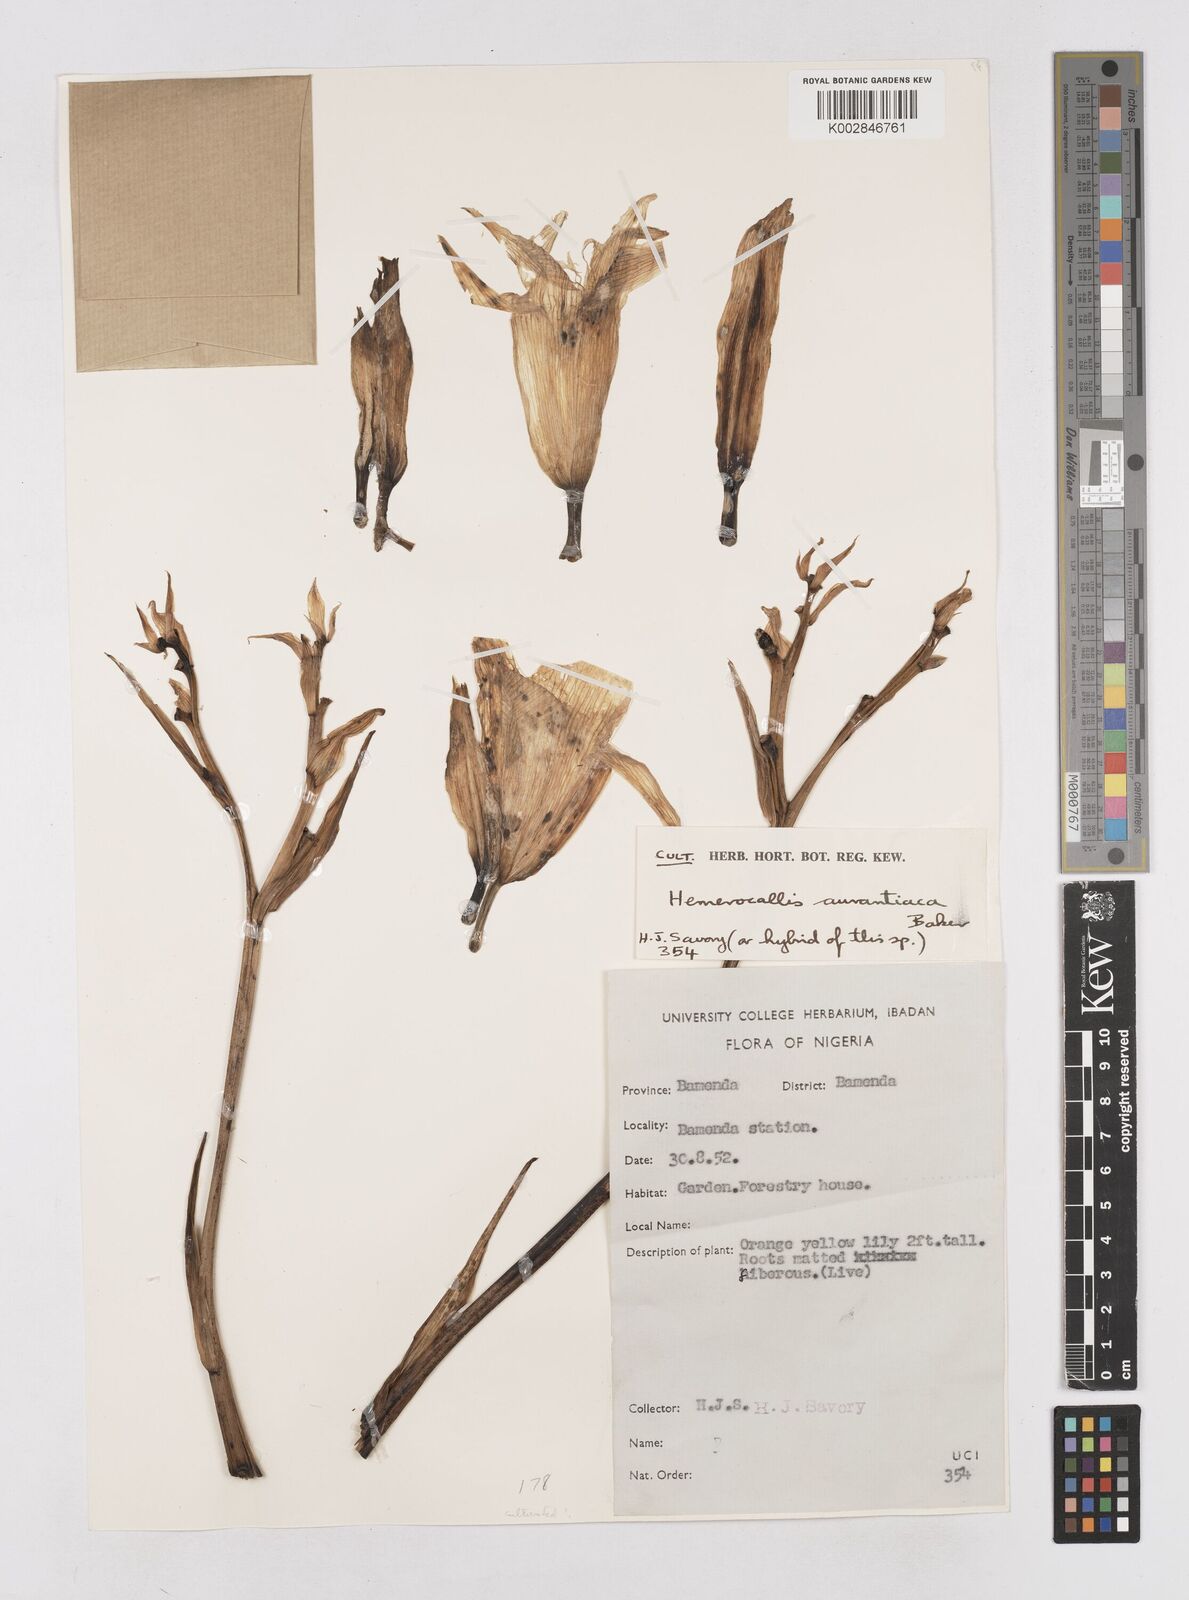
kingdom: Plantae
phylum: Tracheophyta
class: Liliopsida
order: Asparagales
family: Asphodelaceae
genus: Hemerocallis
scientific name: Hemerocallis fulva
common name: Orange day-lily
